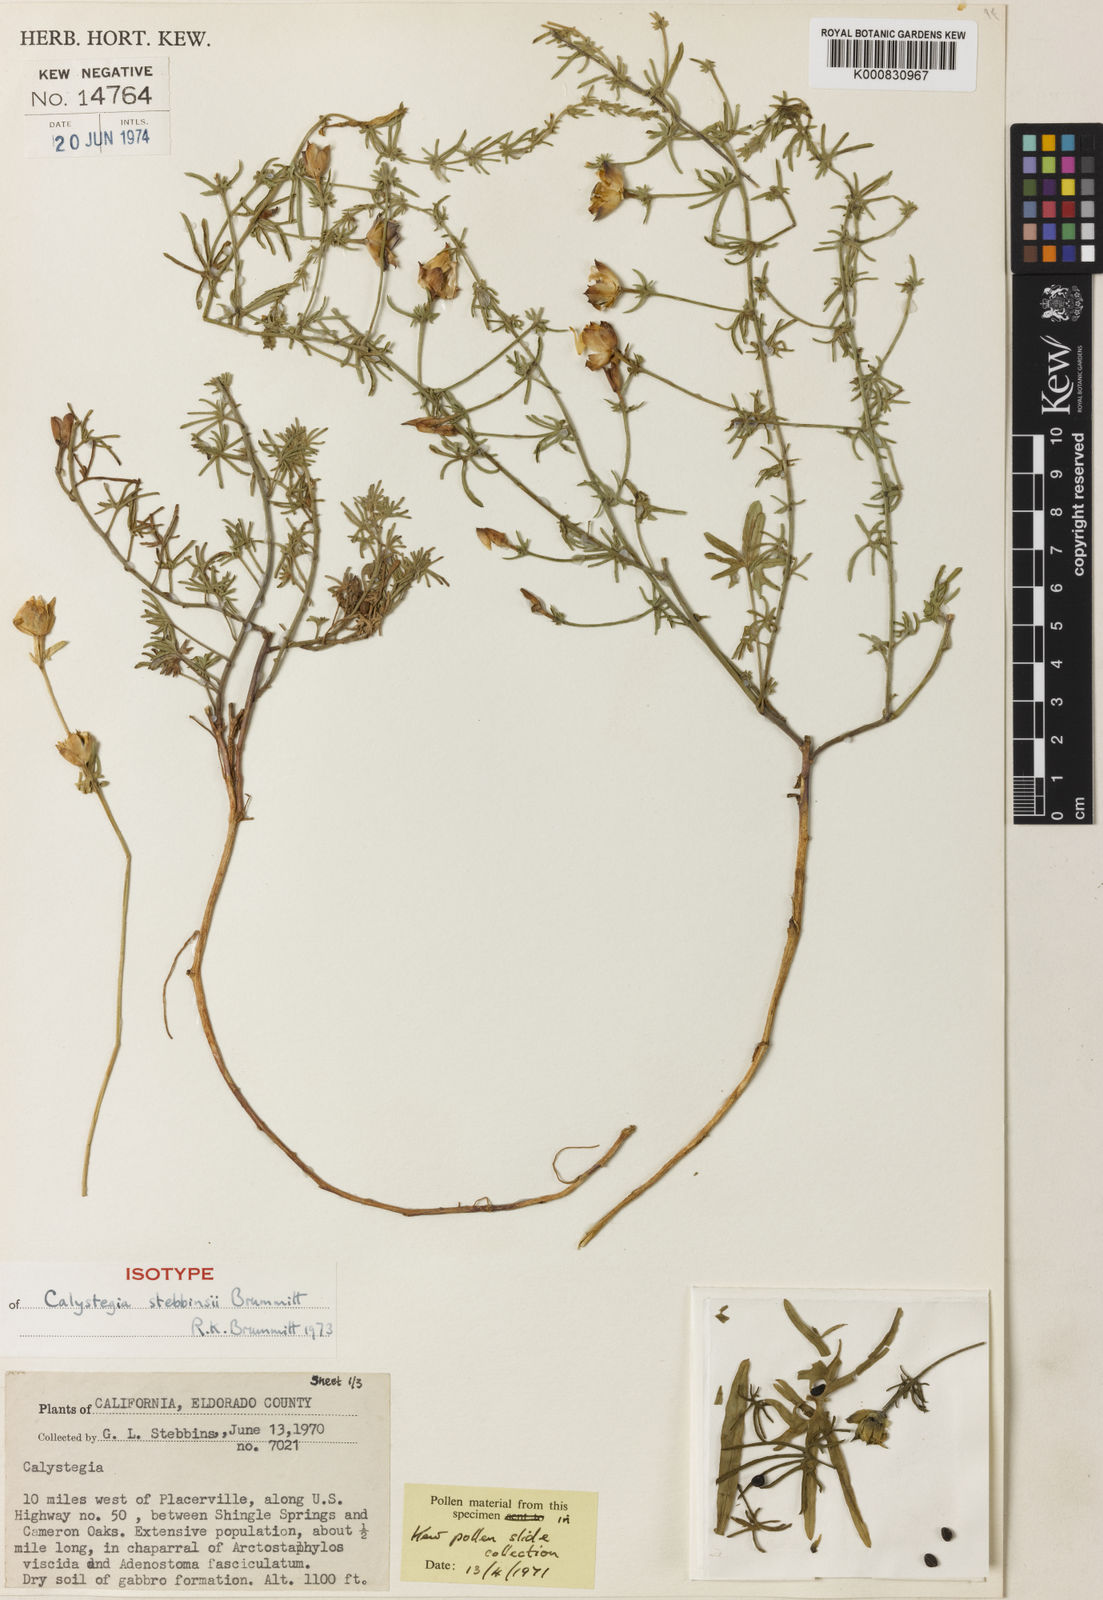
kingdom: Plantae
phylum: Tracheophyta
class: Magnoliopsida
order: Solanales
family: Convolvulaceae
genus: Calystegia
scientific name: Calystegia stebbinsii
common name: Stebbins's-morning-glory
